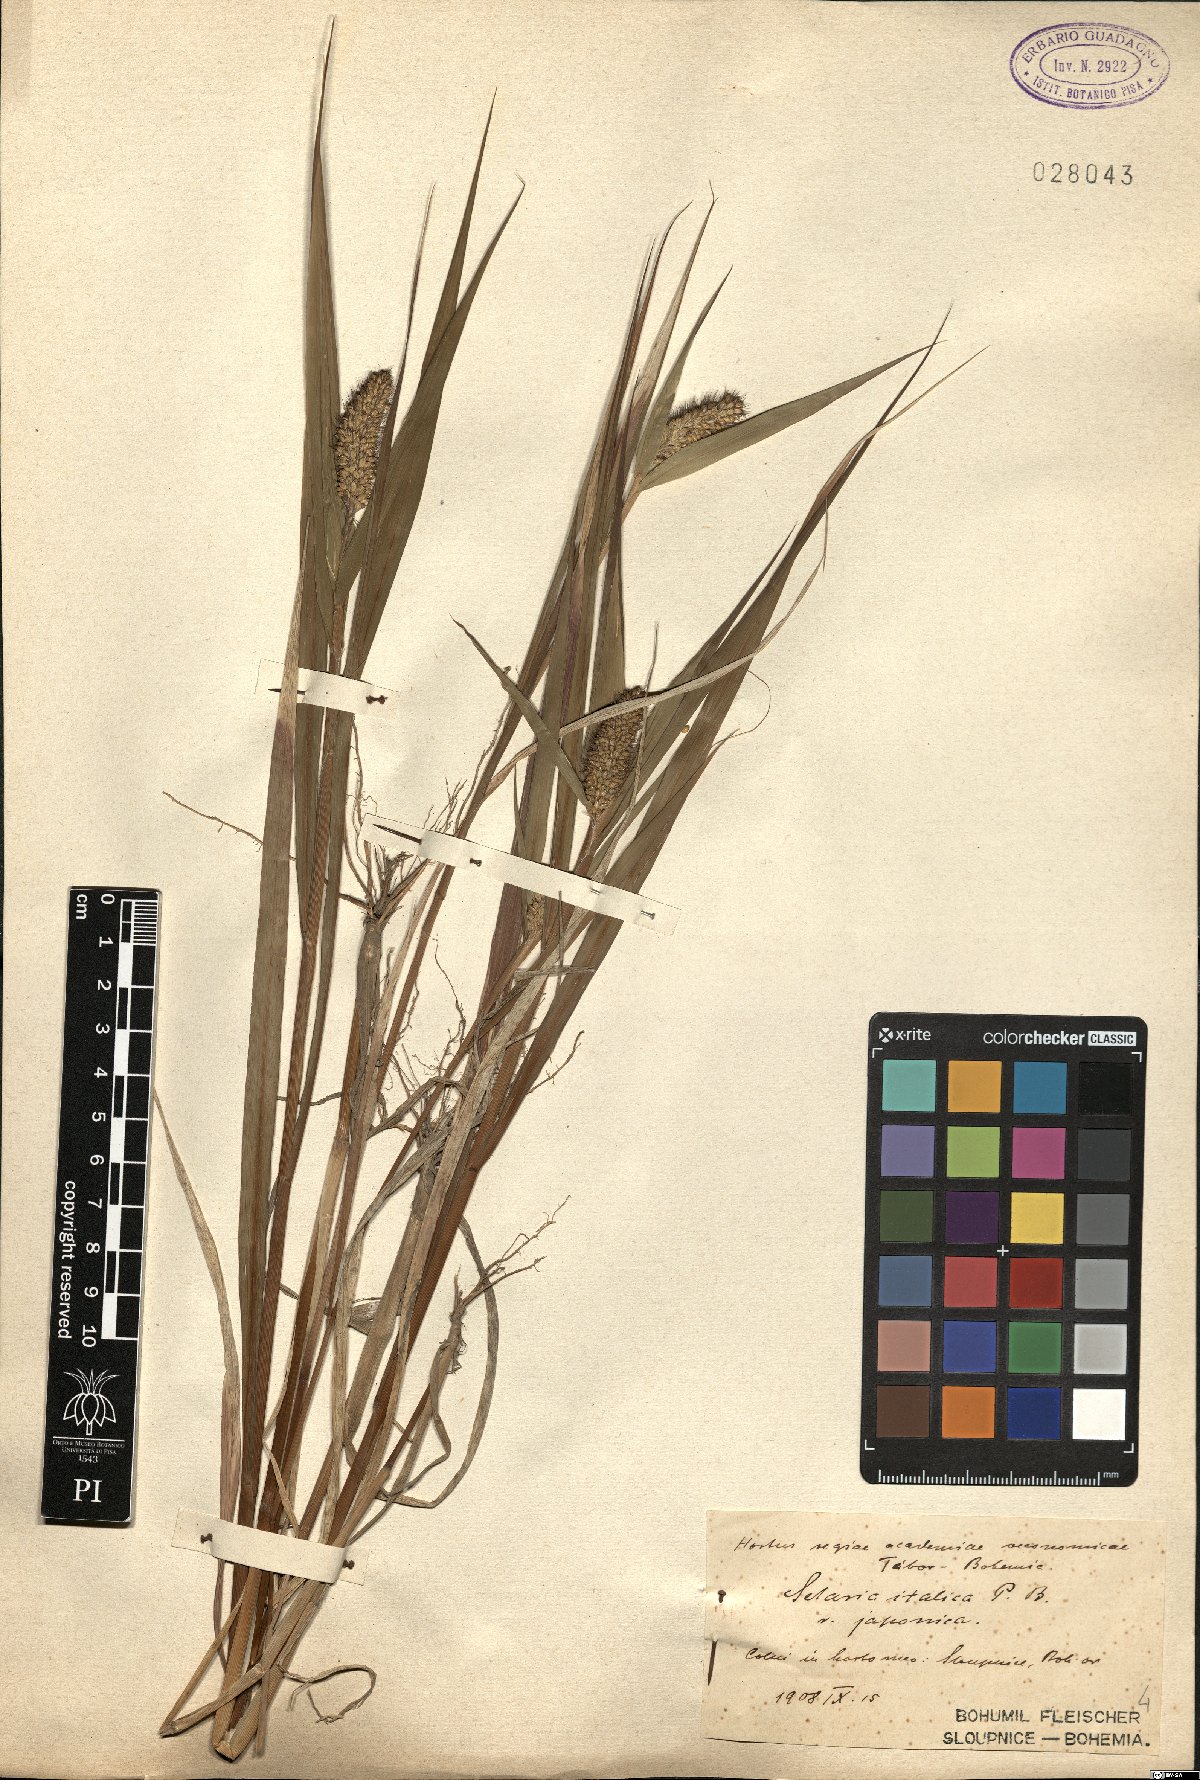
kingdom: Plantae
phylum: Tracheophyta
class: Liliopsida
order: Poales
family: Poaceae
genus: Setaria
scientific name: Setaria italica
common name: Foxtail bristle-grass
